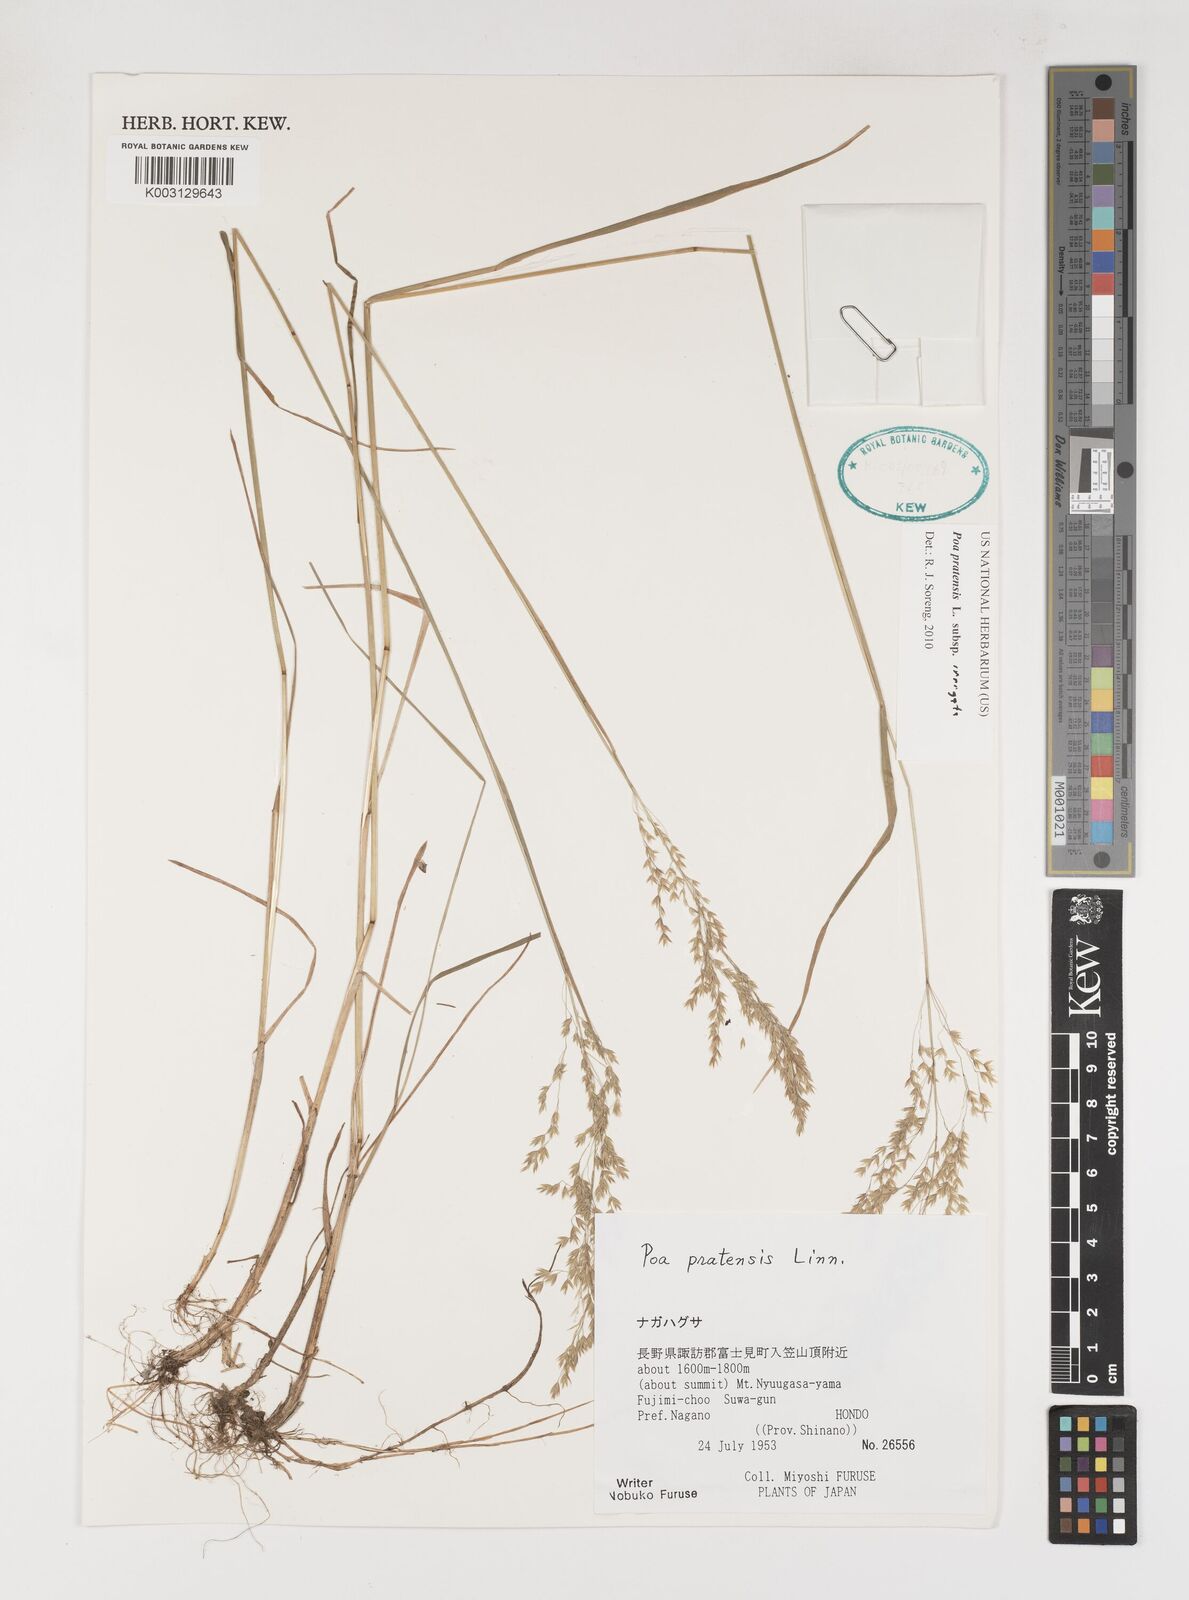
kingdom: Plantae
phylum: Tracheophyta
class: Liliopsida
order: Poales
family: Poaceae
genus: Poa
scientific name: Poa angustifolia
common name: Narrow-leaved meadow-grass
